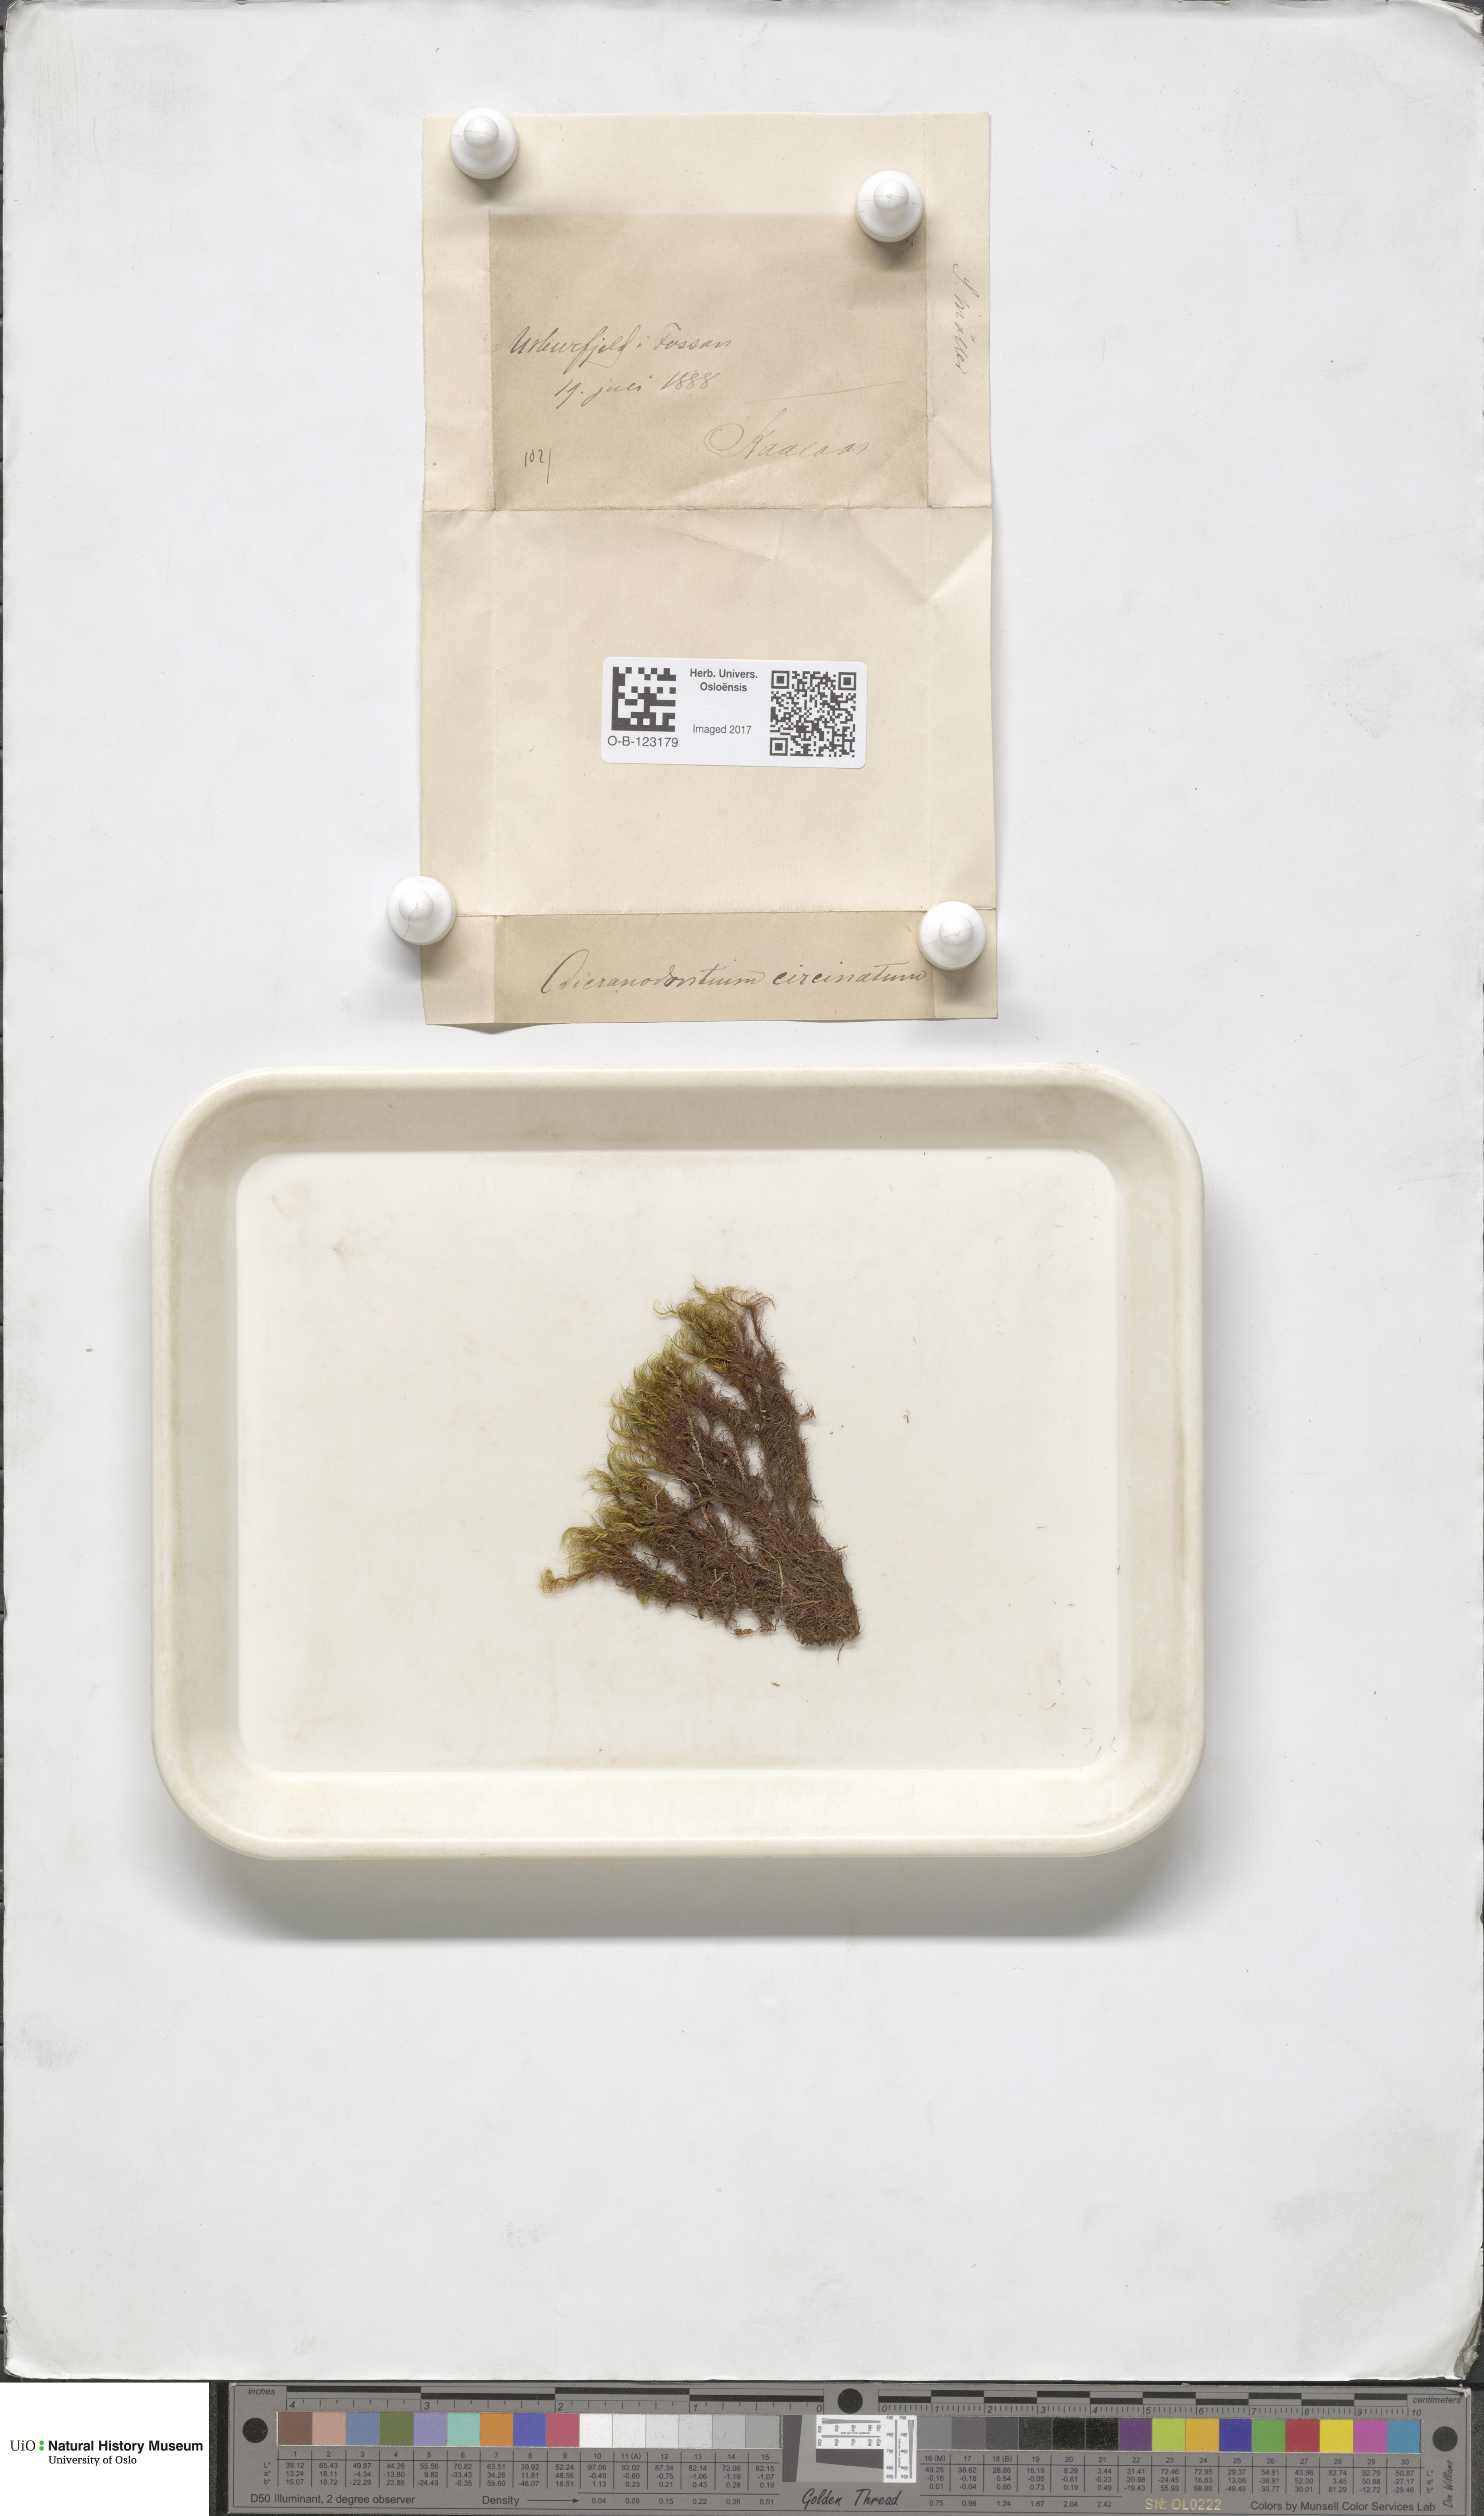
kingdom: Plantae
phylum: Bryophyta
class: Bryopsida
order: Dicranales
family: Leucobryaceae
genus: Dicranodontium
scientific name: Dicranodontium uncinatum
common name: Curve-leaved bow-moss
